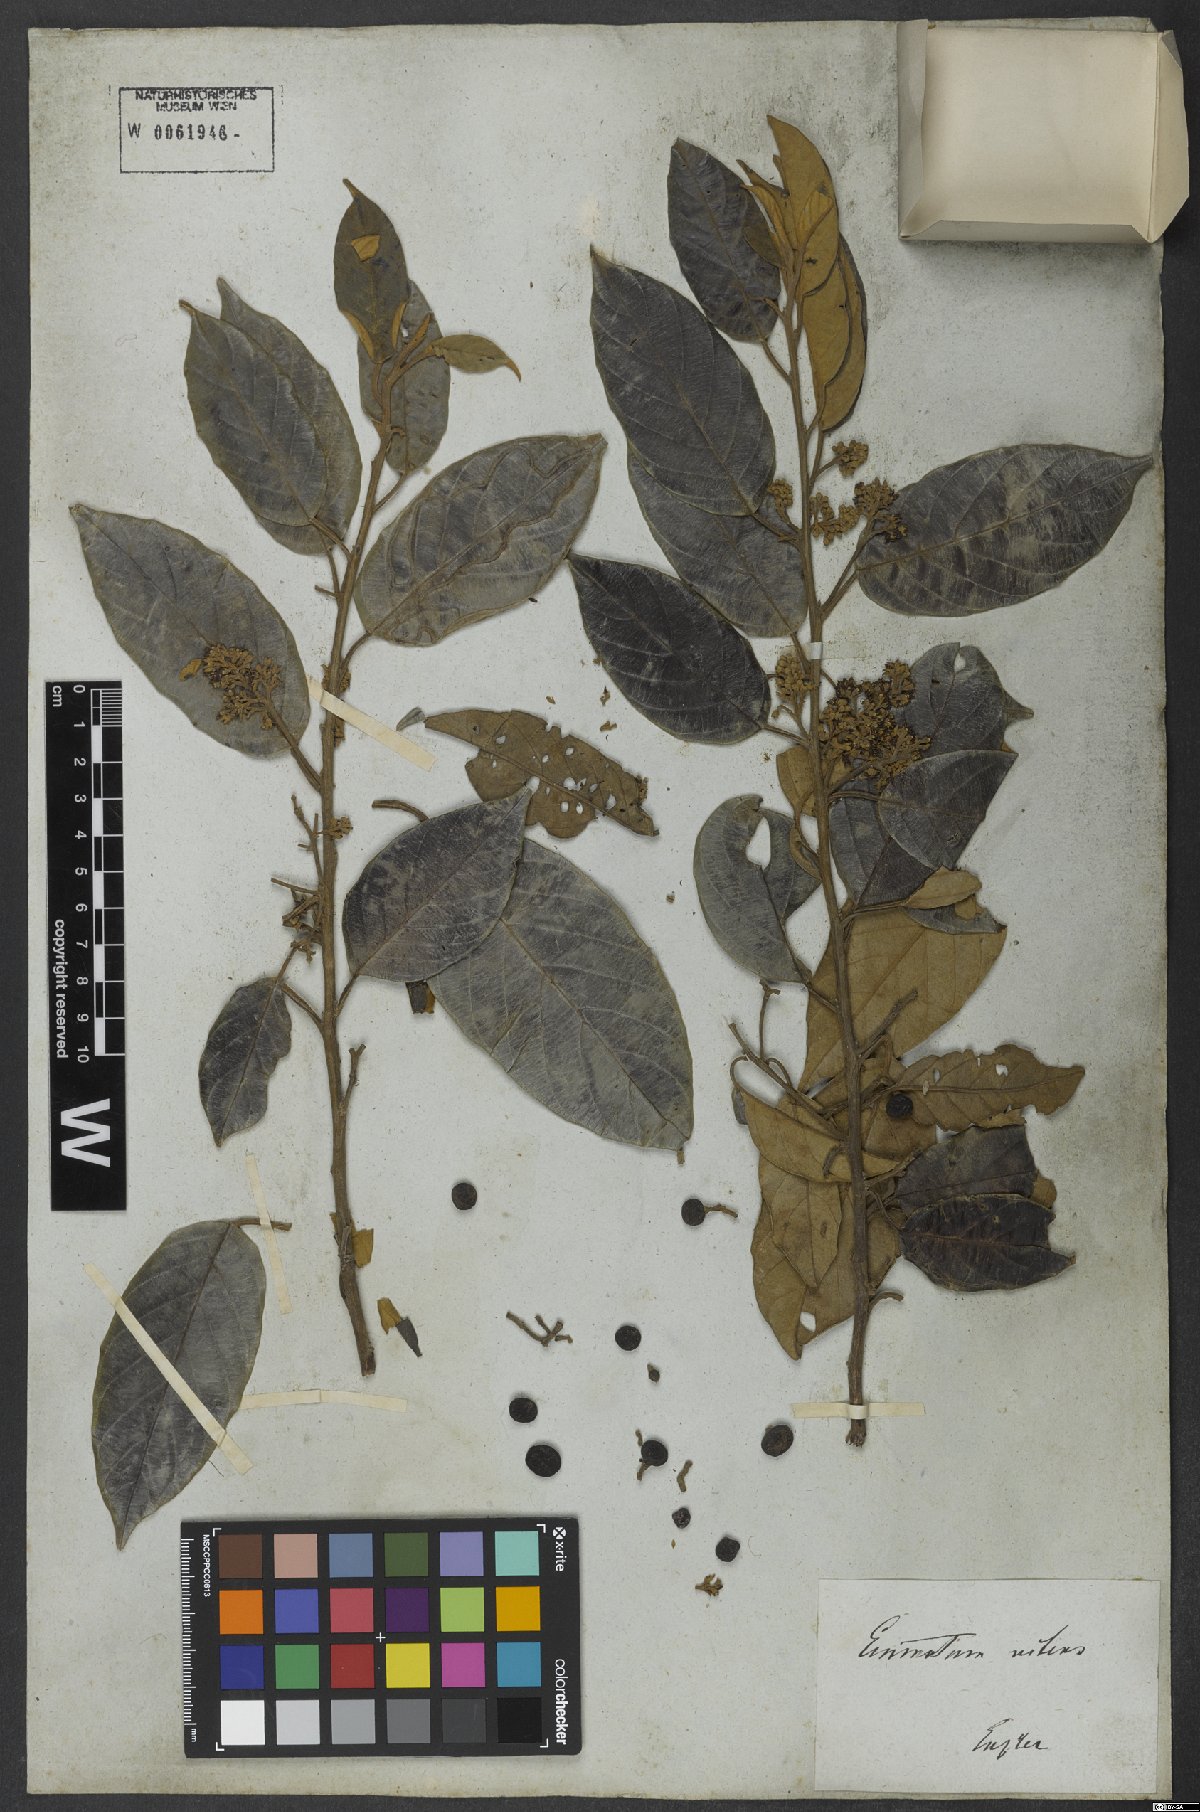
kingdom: Plantae
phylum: Tracheophyta
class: Magnoliopsida
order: Metteniusales
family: Metteniusaceae
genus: Emmotum
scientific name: Emmotum nitens
